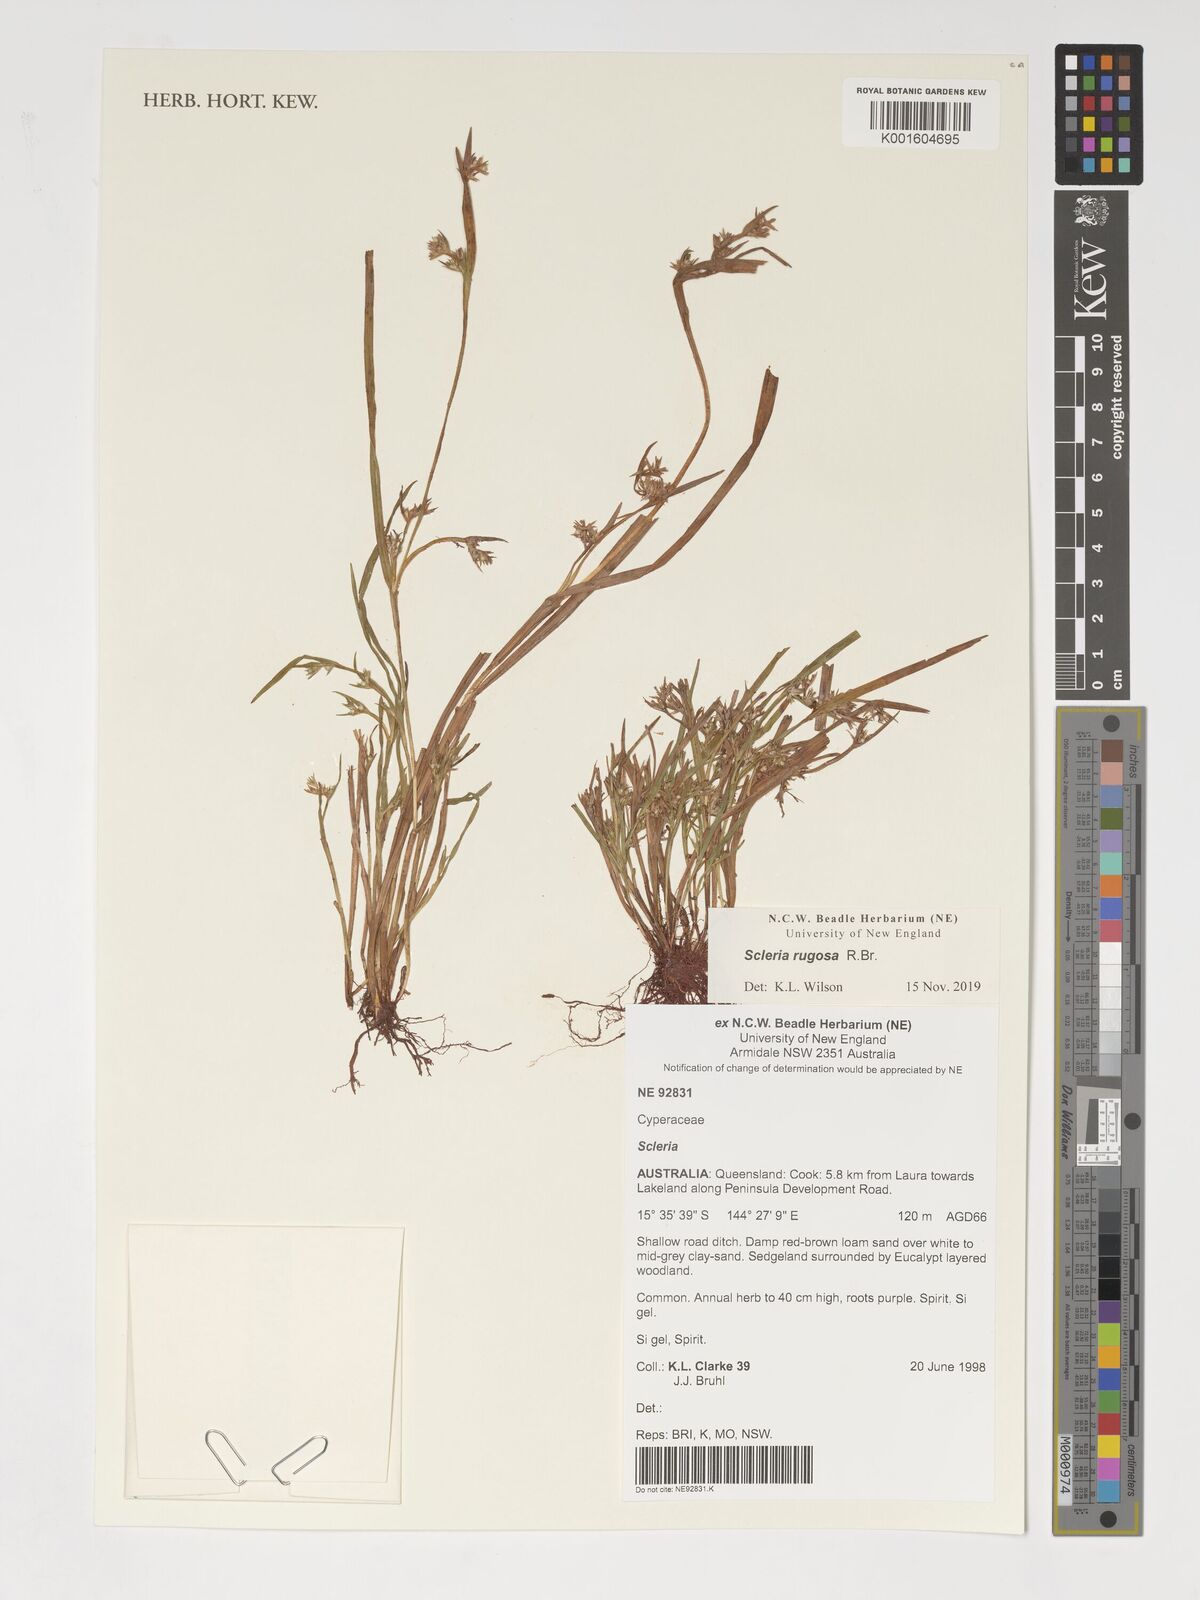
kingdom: Plantae
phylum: Tracheophyta
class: Liliopsida
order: Poales
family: Cyperaceae
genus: Scleria
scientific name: Scleria rugosa
